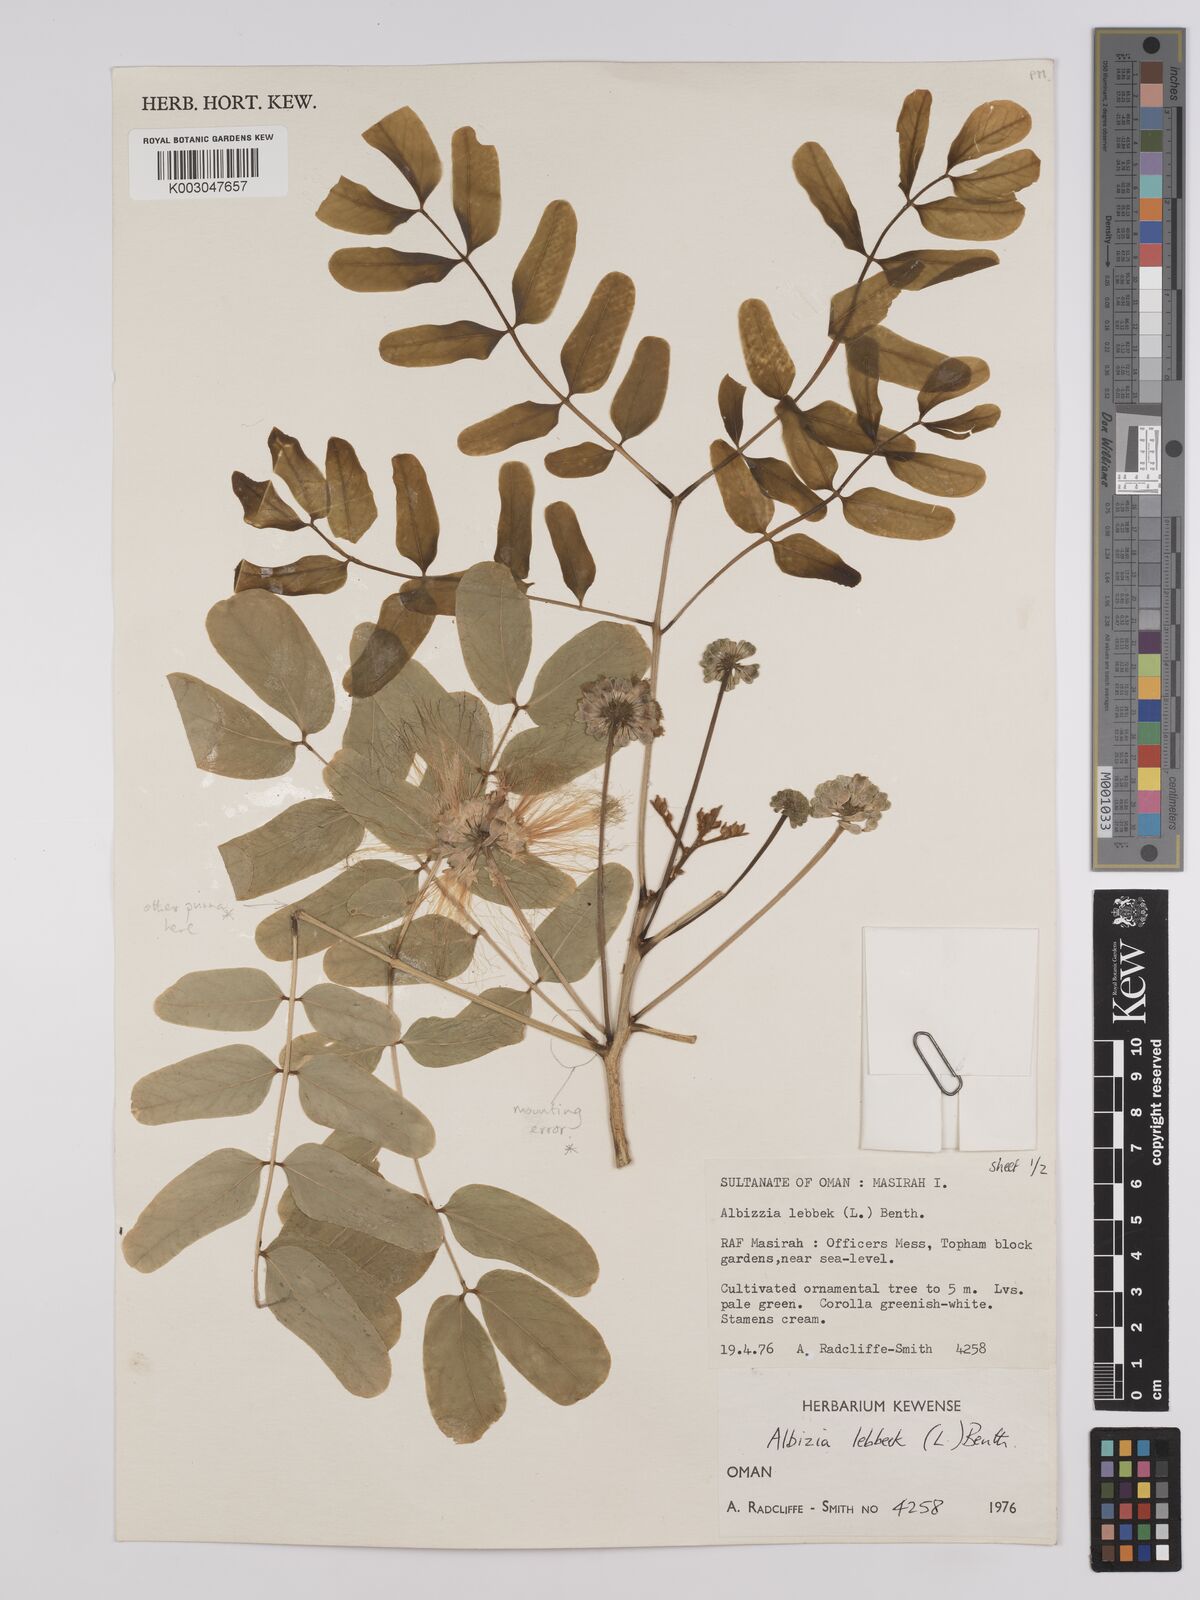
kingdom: Plantae
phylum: Tracheophyta
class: Magnoliopsida
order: Fabales
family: Fabaceae
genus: Albizia
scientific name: Albizia lebbeck
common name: Woman's tongue
